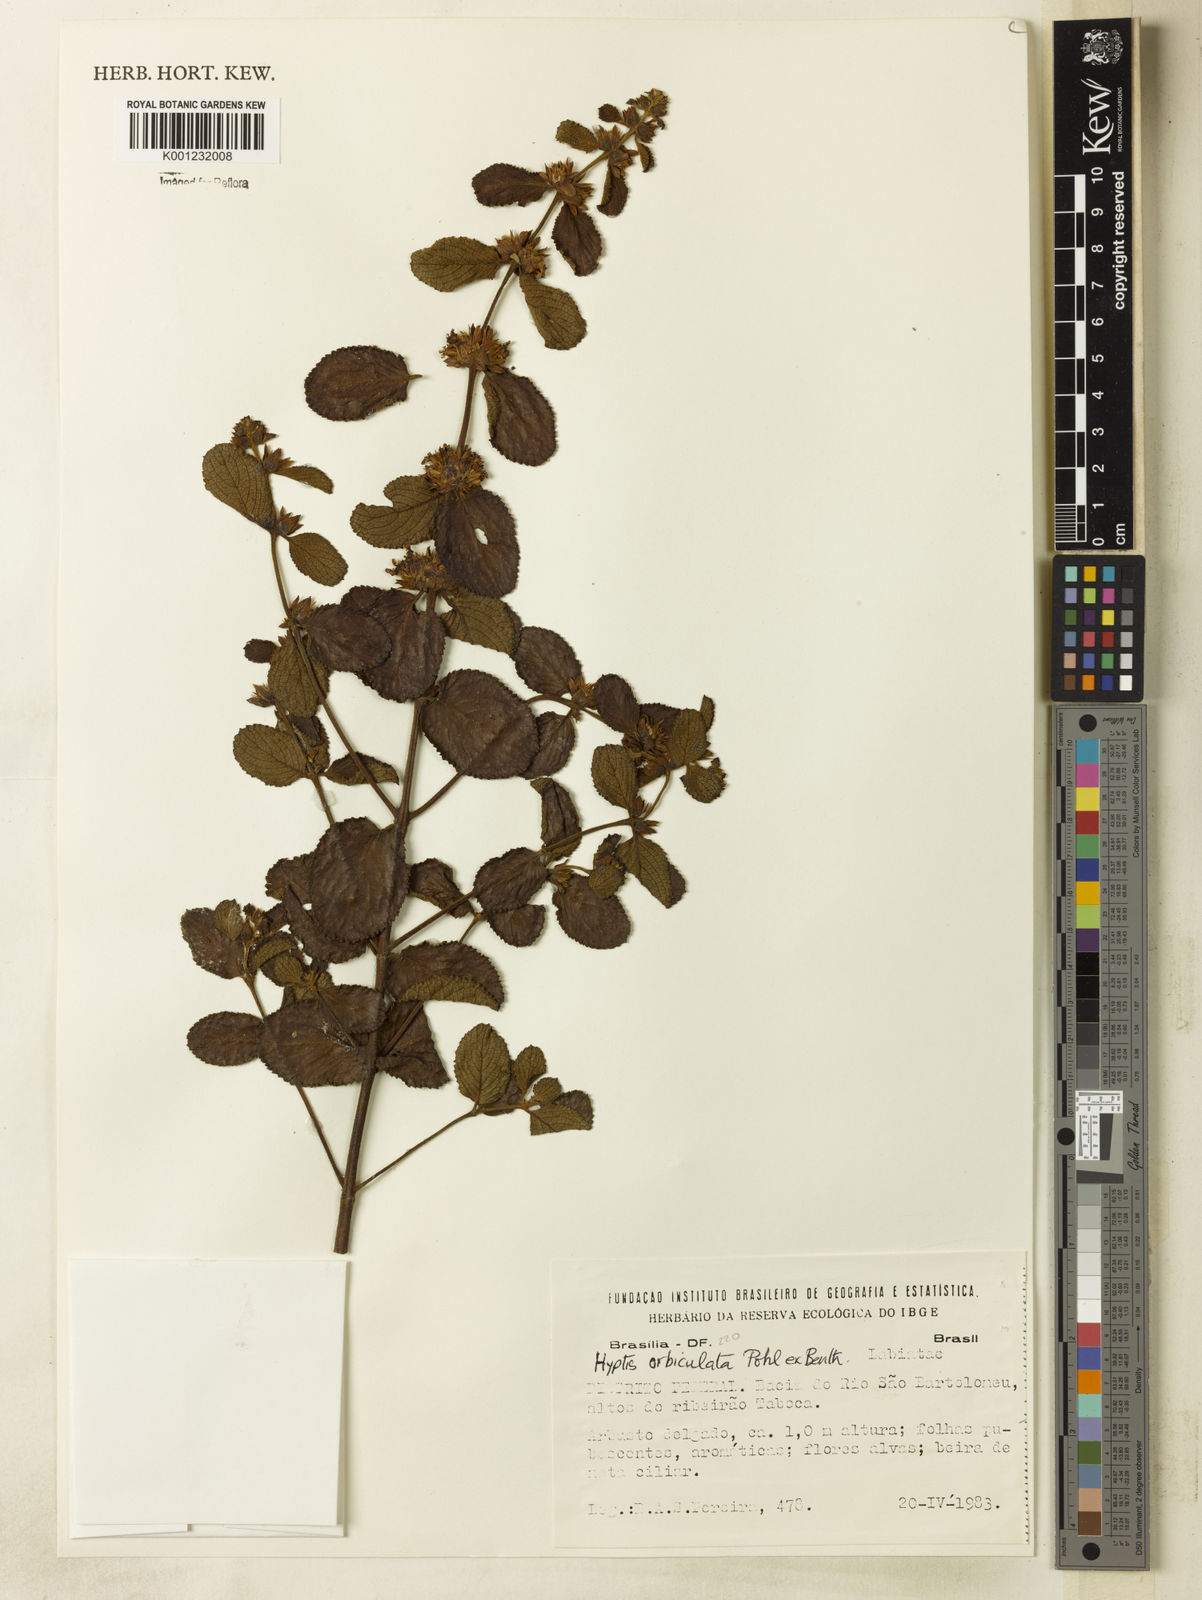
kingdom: Plantae
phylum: Tracheophyta
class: Magnoliopsida
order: Lamiales
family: Lamiaceae
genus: Hyptis
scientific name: Hyptis orbiculata
